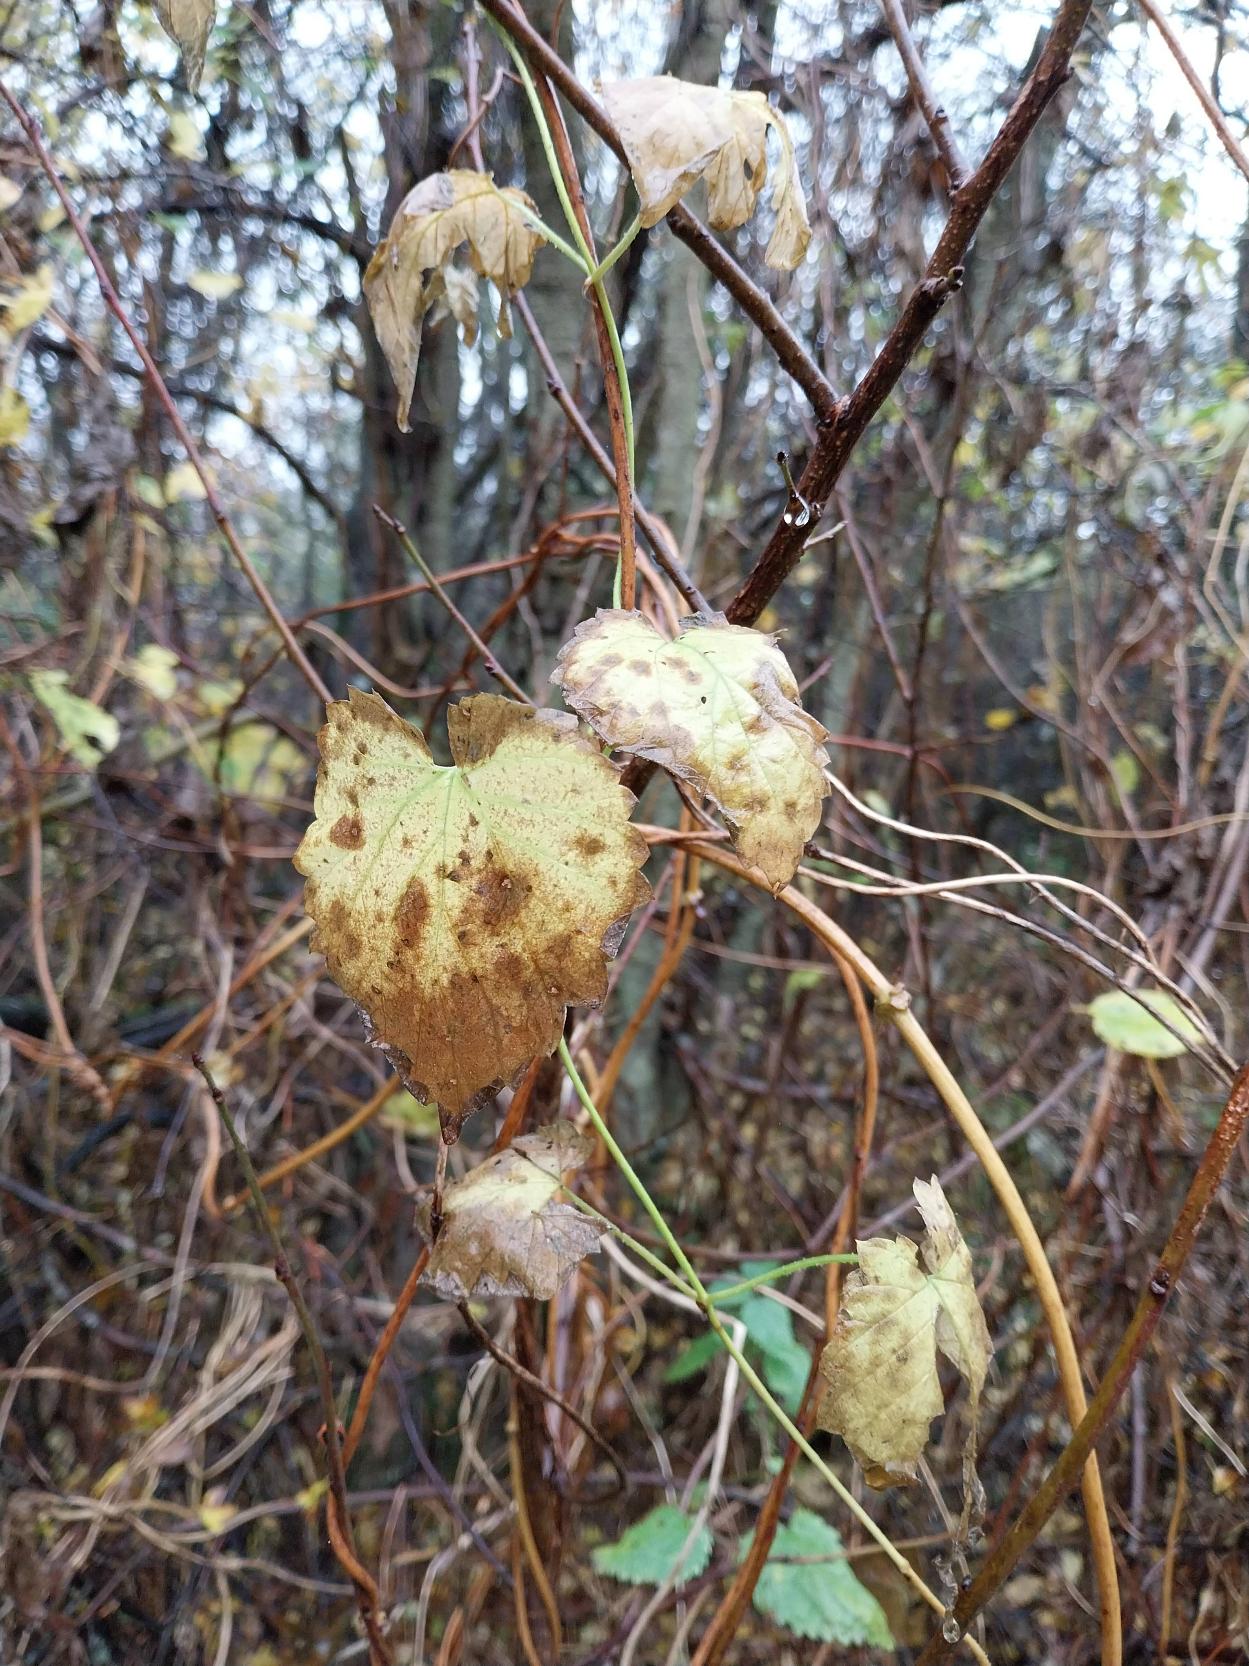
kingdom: Plantae
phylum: Tracheophyta
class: Magnoliopsida
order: Rosales
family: Cannabaceae
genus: Humulus
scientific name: Humulus lupulus
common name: Humle
